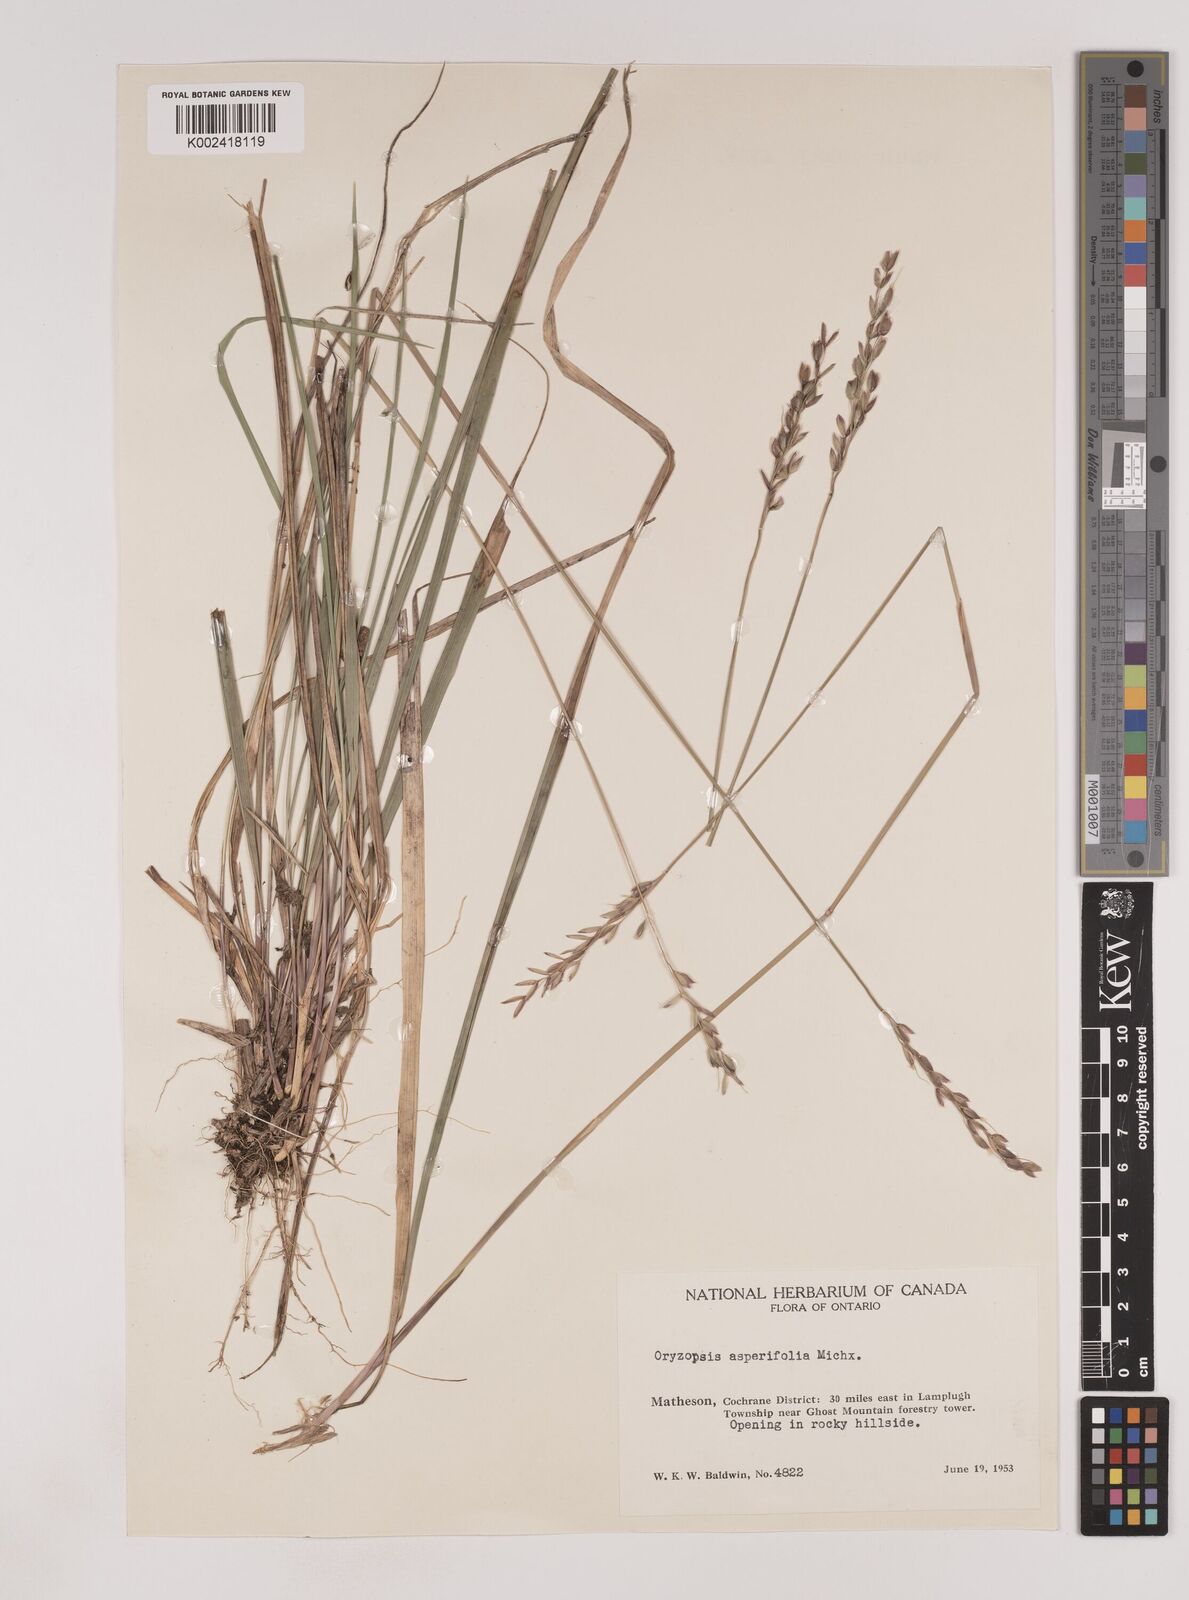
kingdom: Plantae
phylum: Tracheophyta
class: Liliopsida
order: Poales
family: Poaceae
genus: Oryzopsis
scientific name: Oryzopsis asperifolia
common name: Rough-leaved mountain rice
